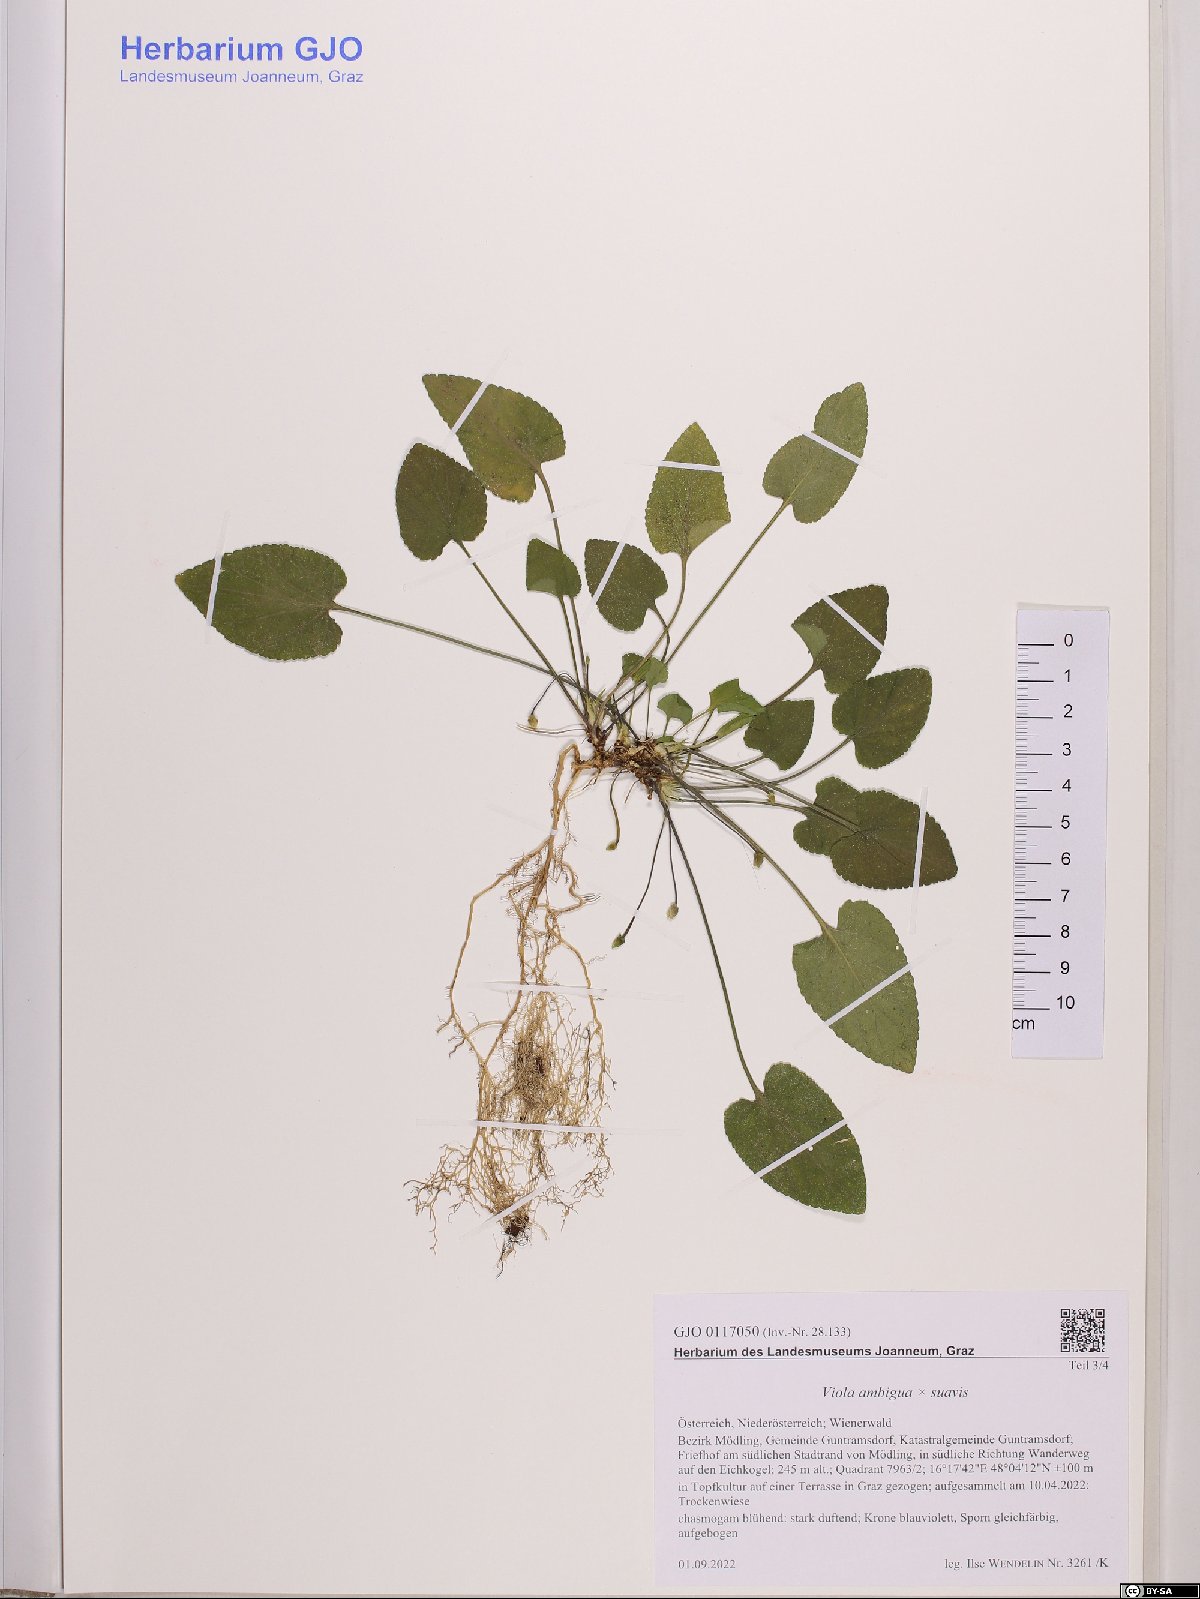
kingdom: Plantae
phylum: Tracheophyta
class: Magnoliopsida
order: Malpighiales
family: Violaceae
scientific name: Violaceae
